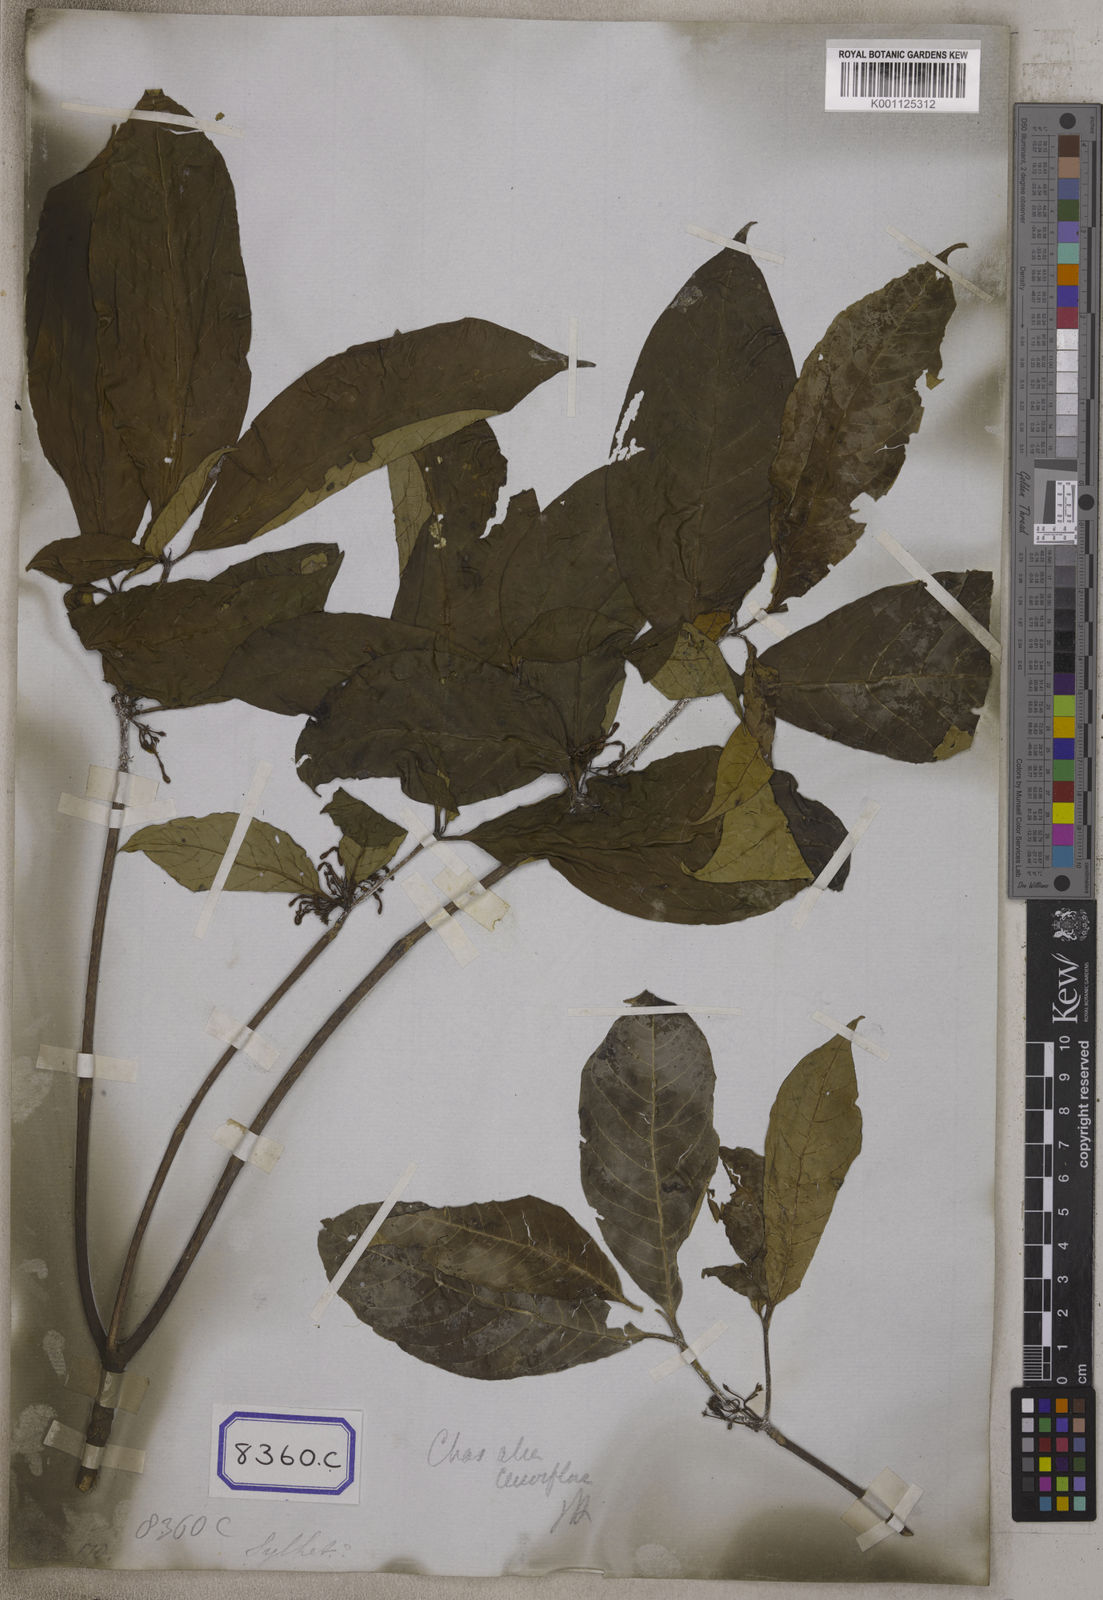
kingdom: Plantae
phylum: Tracheophyta
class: Magnoliopsida
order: Gentianales
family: Rubiaceae
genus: Chassalia
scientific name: Chassalia curviflora
